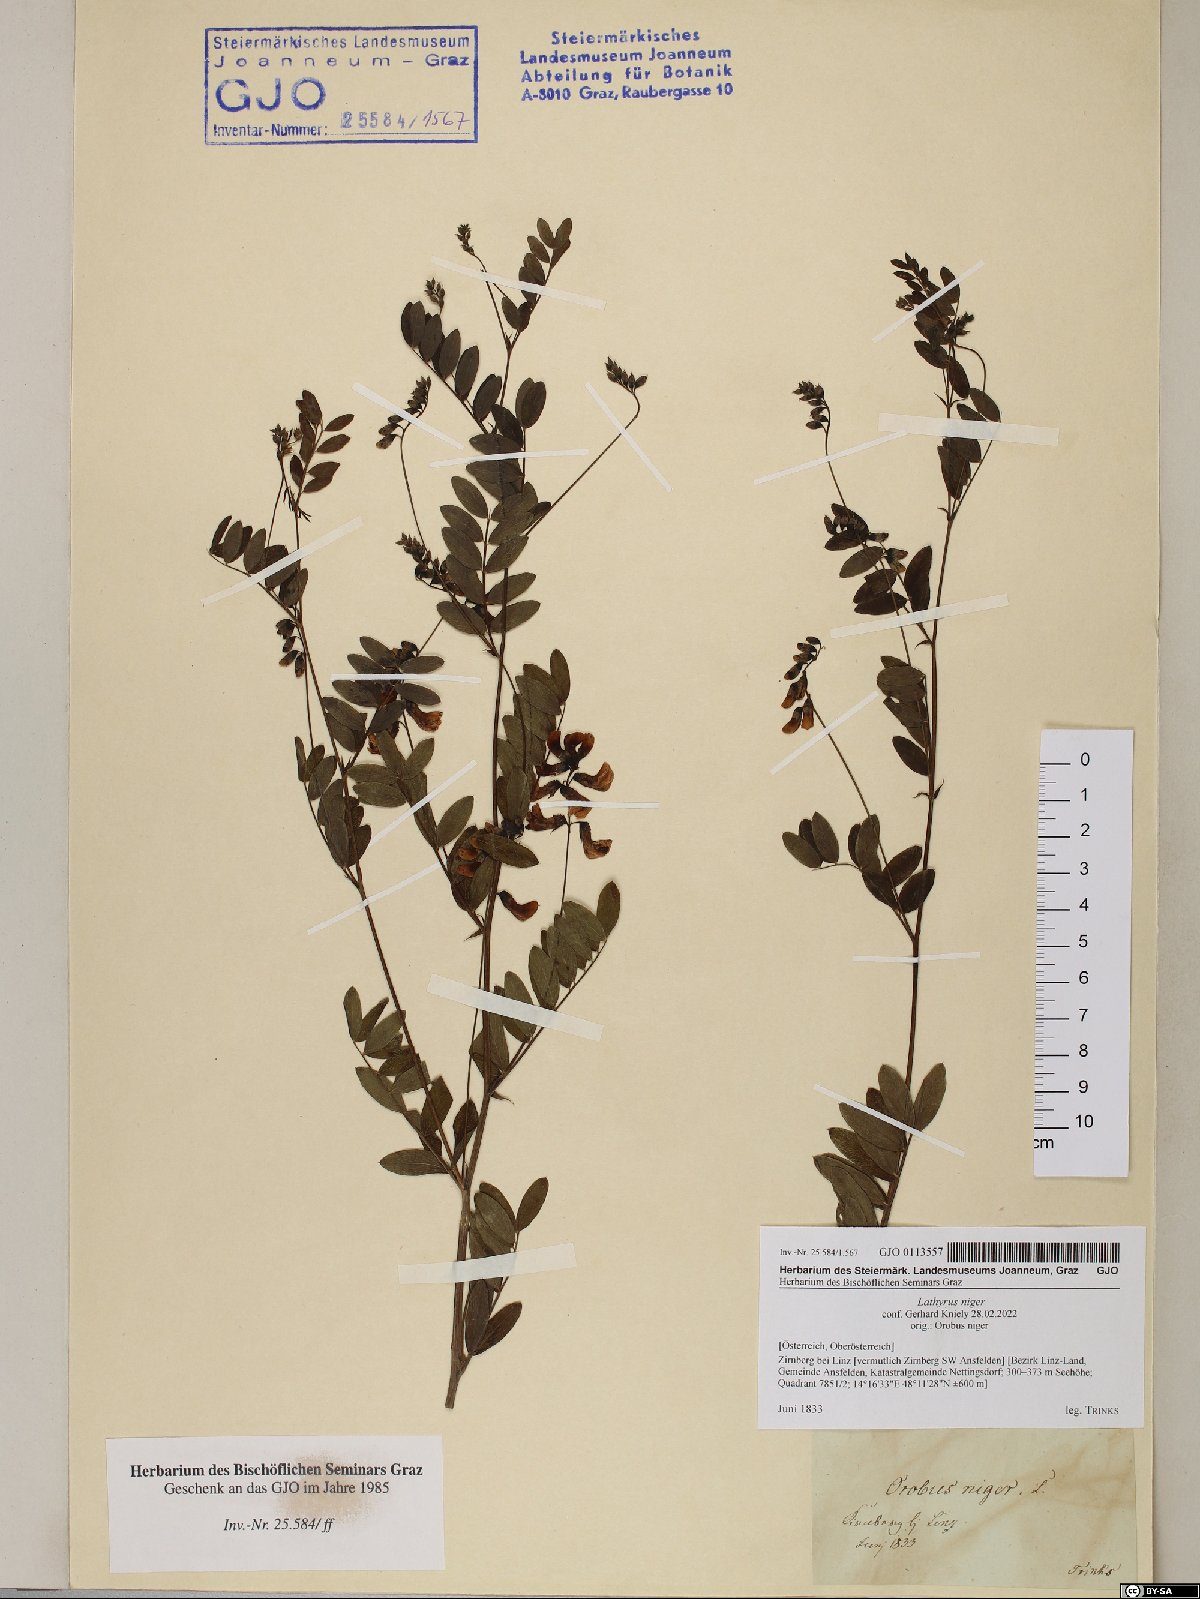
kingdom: Plantae
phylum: Tracheophyta
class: Magnoliopsida
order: Fabales
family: Fabaceae
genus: Lathyrus
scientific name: Lathyrus niger
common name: Black pea
